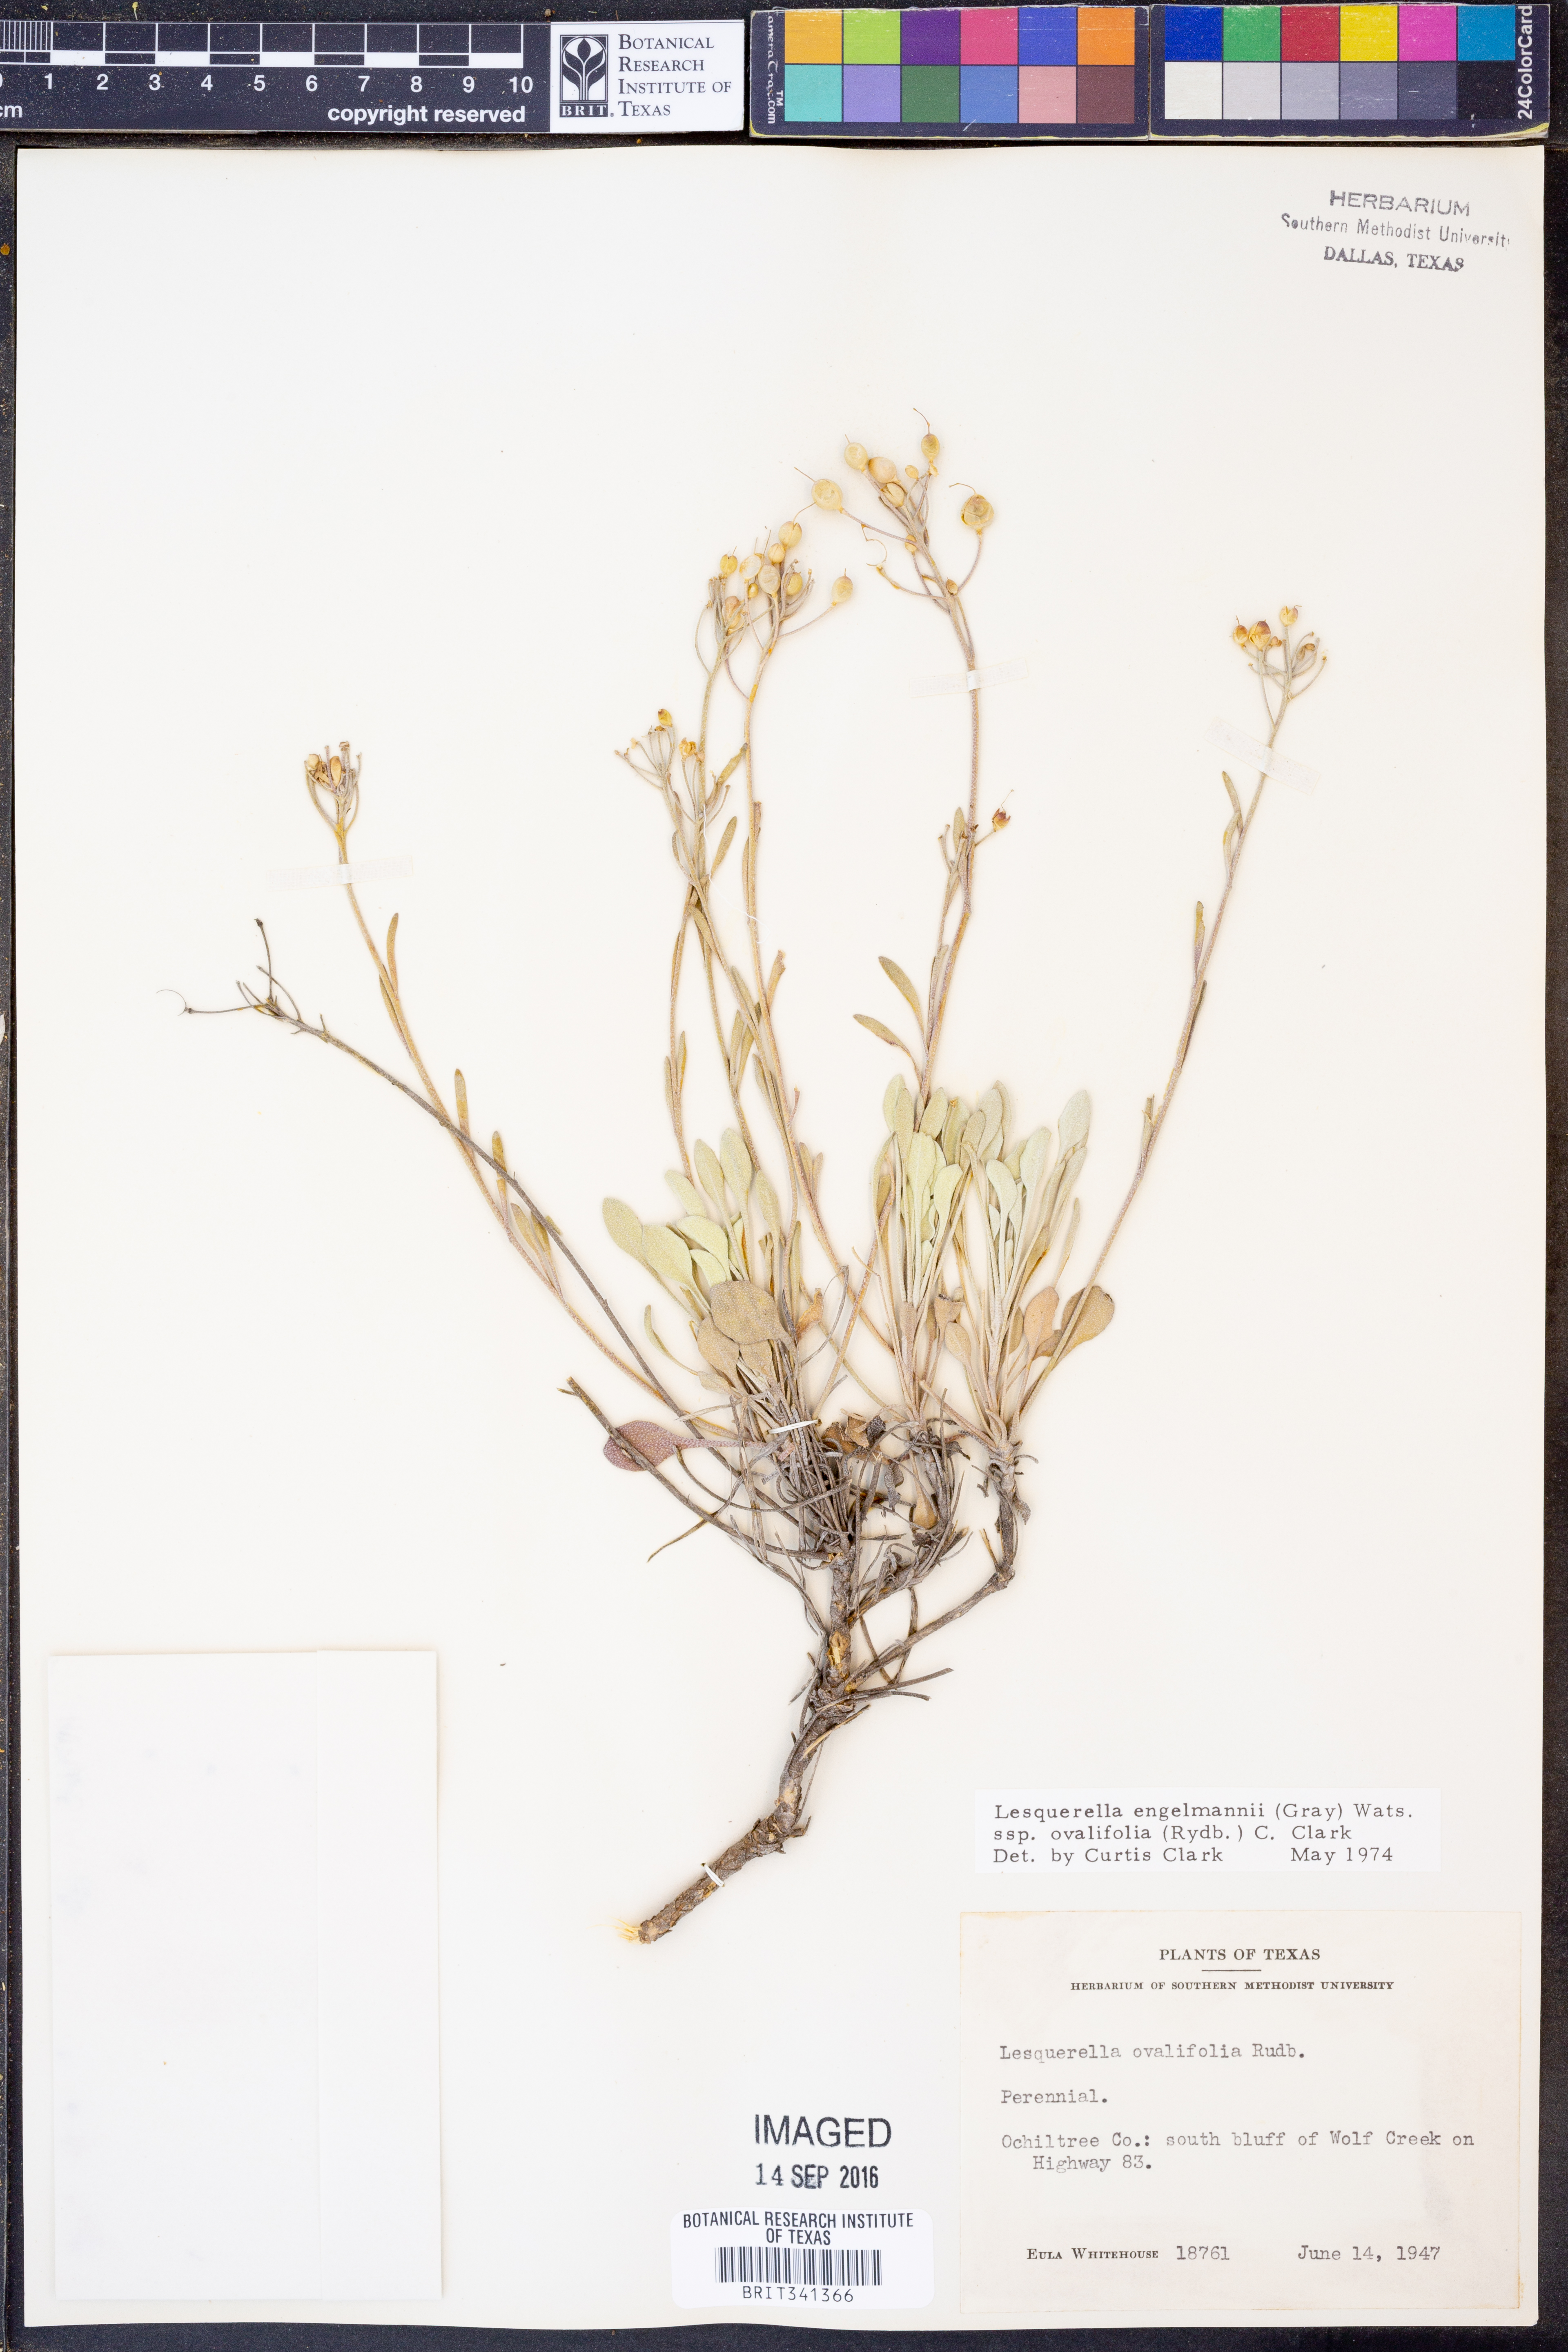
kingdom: Plantae
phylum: Tracheophyta
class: Magnoliopsida
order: Brassicales
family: Brassicaceae
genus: Physaria
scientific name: Physaria ovalifolia
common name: Round-leaf bladderpod
